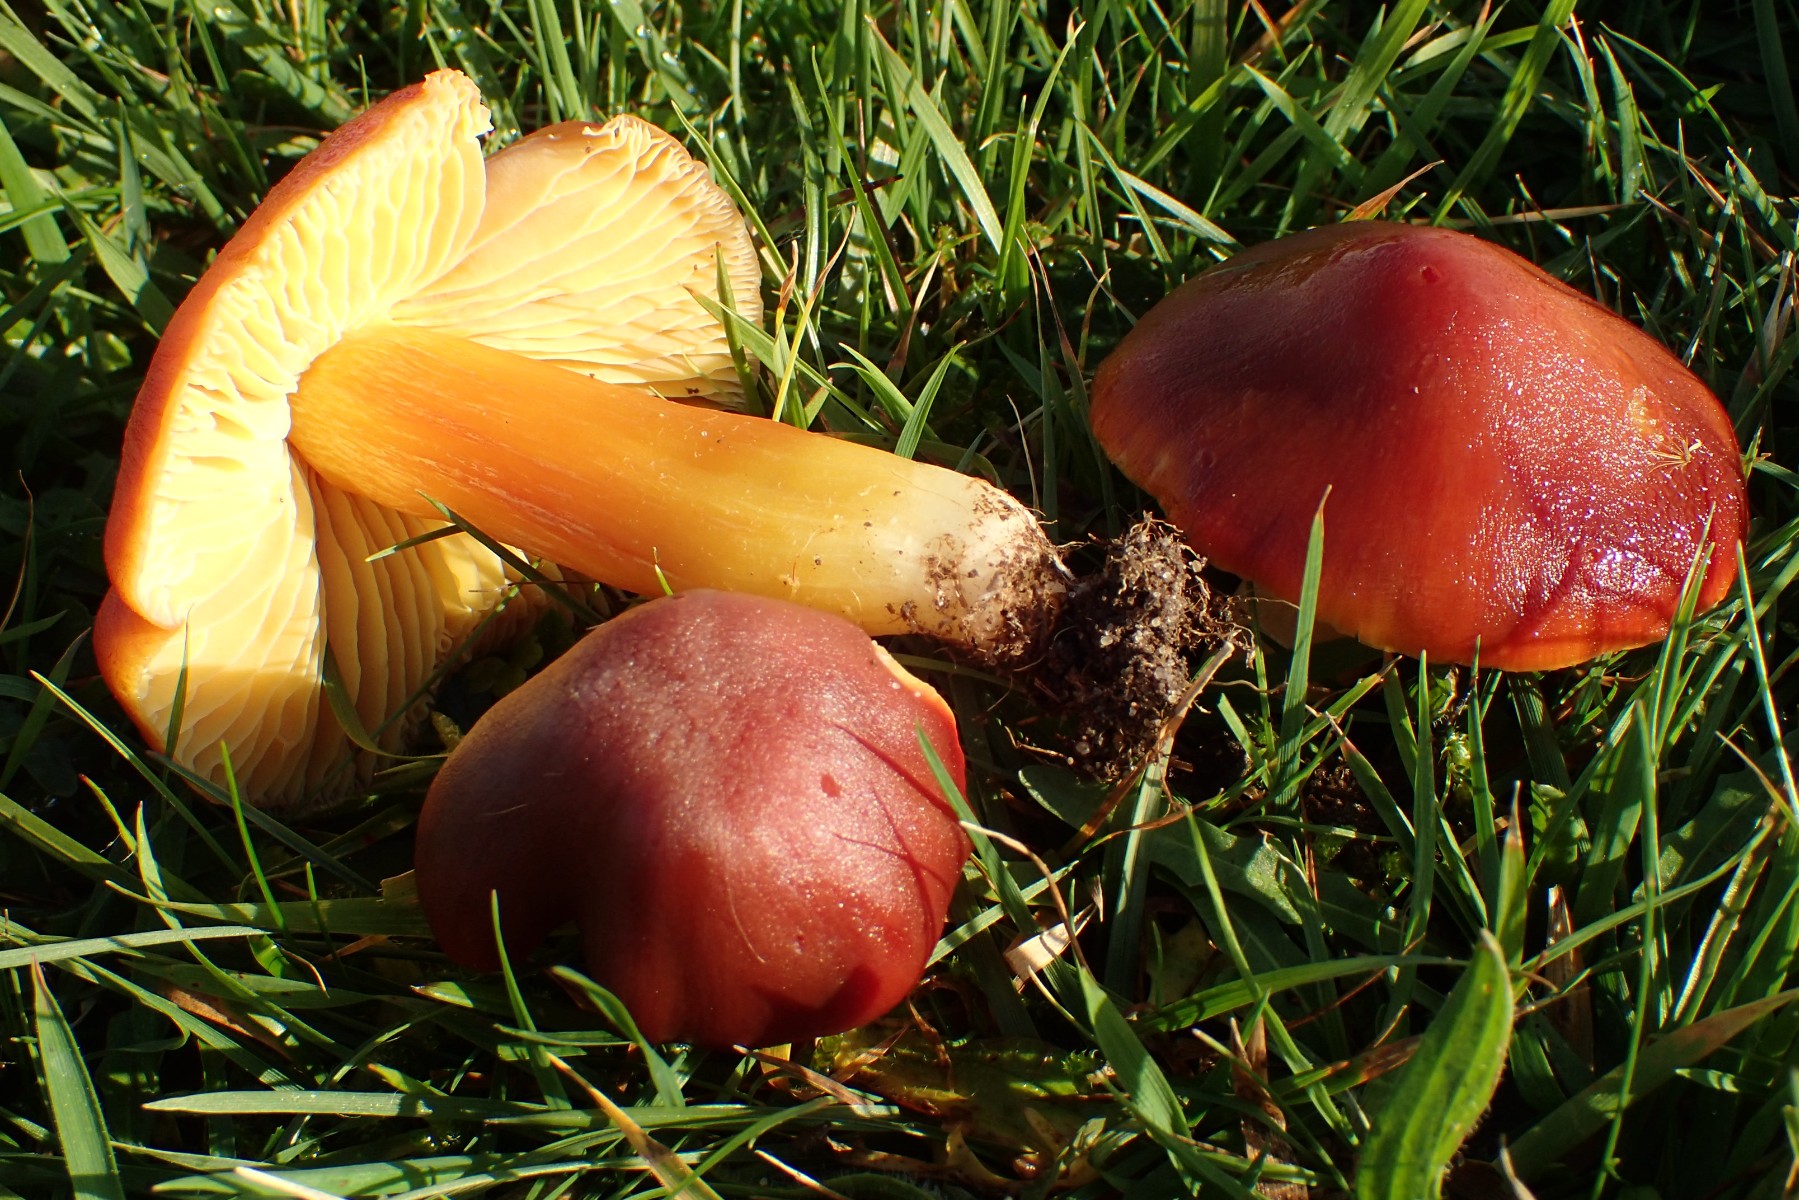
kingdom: Fungi
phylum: Basidiomycota
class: Agaricomycetes
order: Agaricales
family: Hygrophoraceae
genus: Hygrocybe
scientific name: Hygrocybe punicea
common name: skarlagen-vokshat
